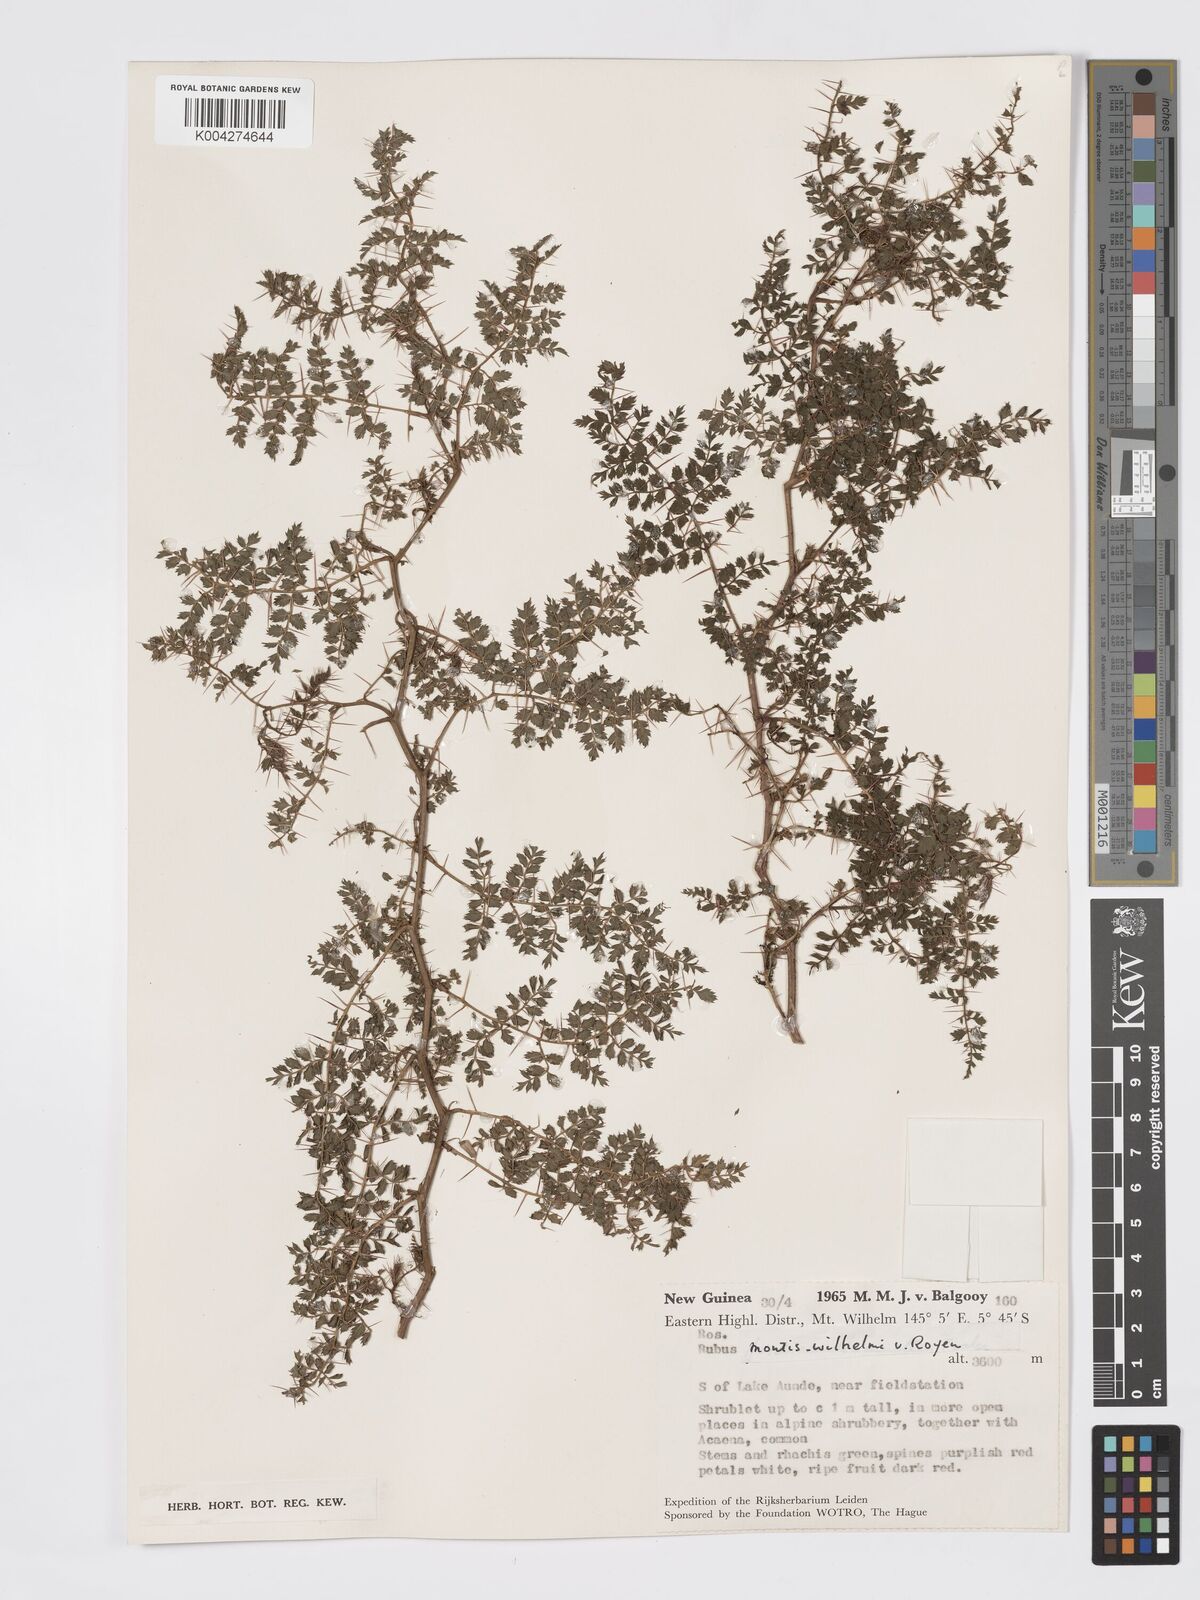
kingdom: Plantae
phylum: Tracheophyta
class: Magnoliopsida
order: Rosales
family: Rosaceae
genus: Rubus
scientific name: Rubus montis-wilhelmii
